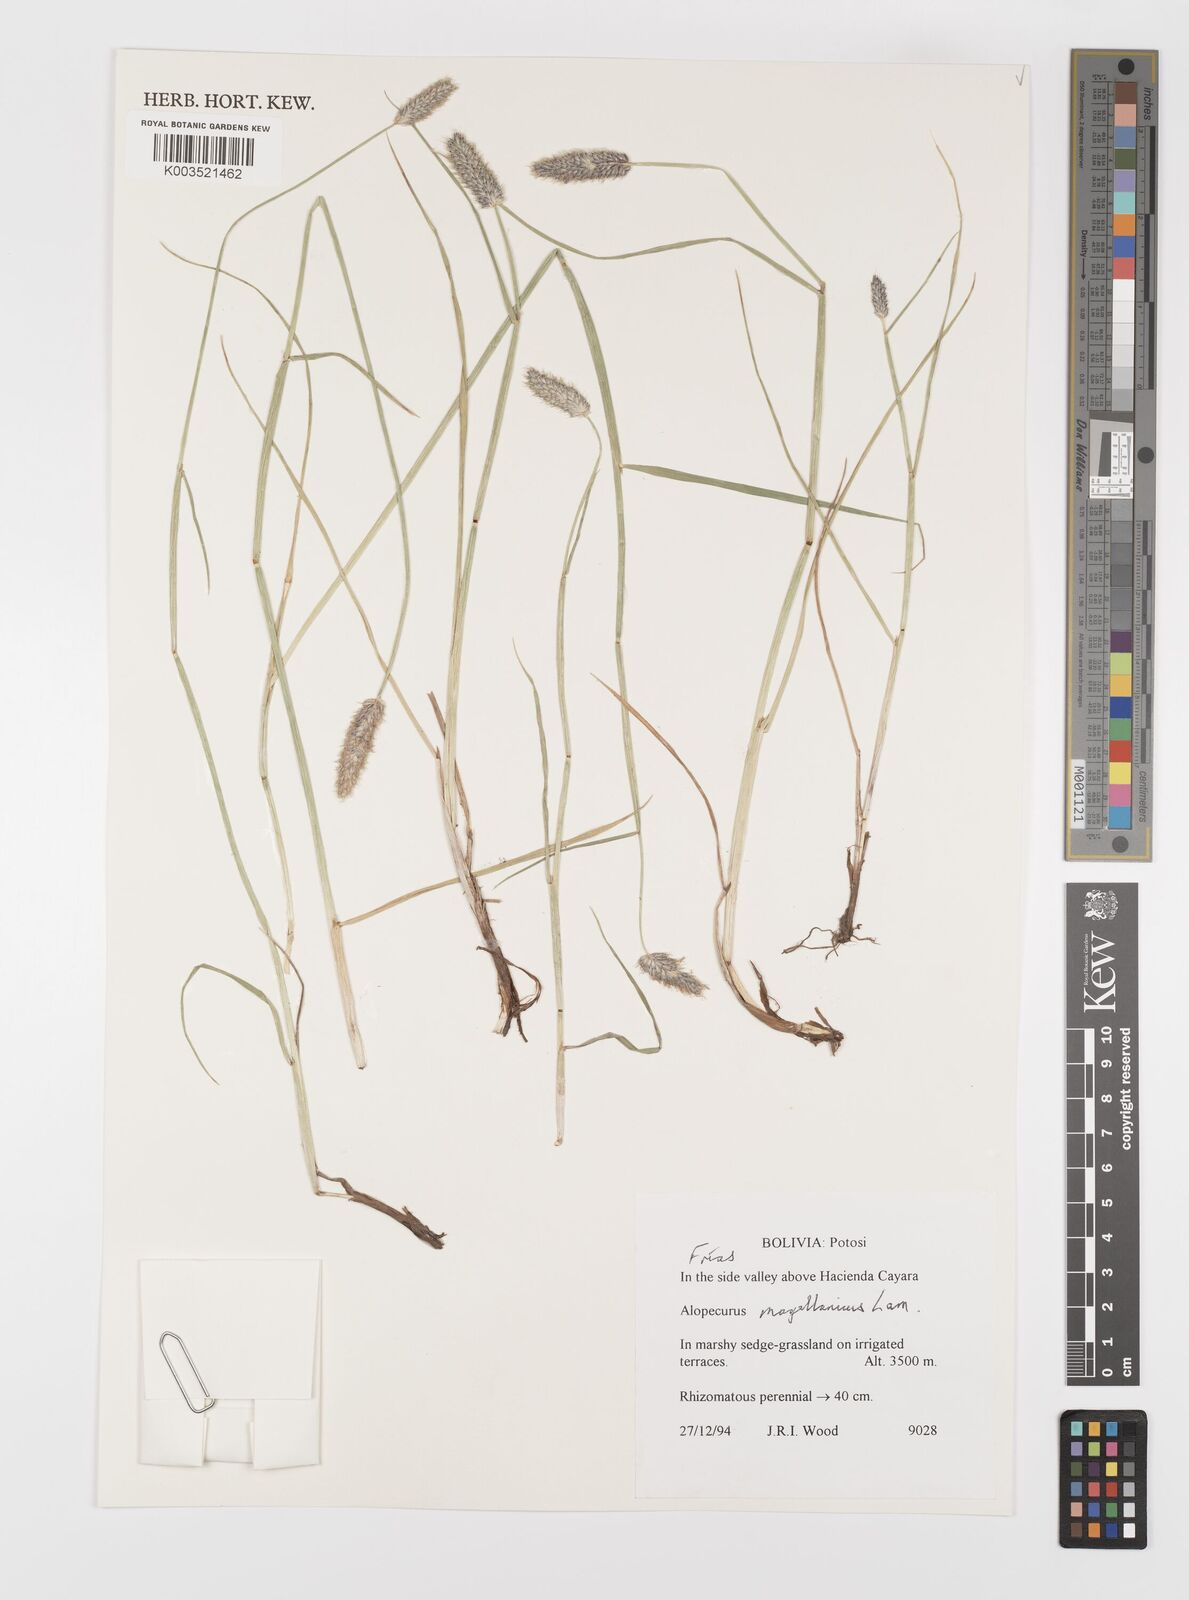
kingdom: Plantae
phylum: Tracheophyta
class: Liliopsida
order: Poales
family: Poaceae
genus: Alopecurus
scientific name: Alopecurus magellanicus
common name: Alpine foxtail
